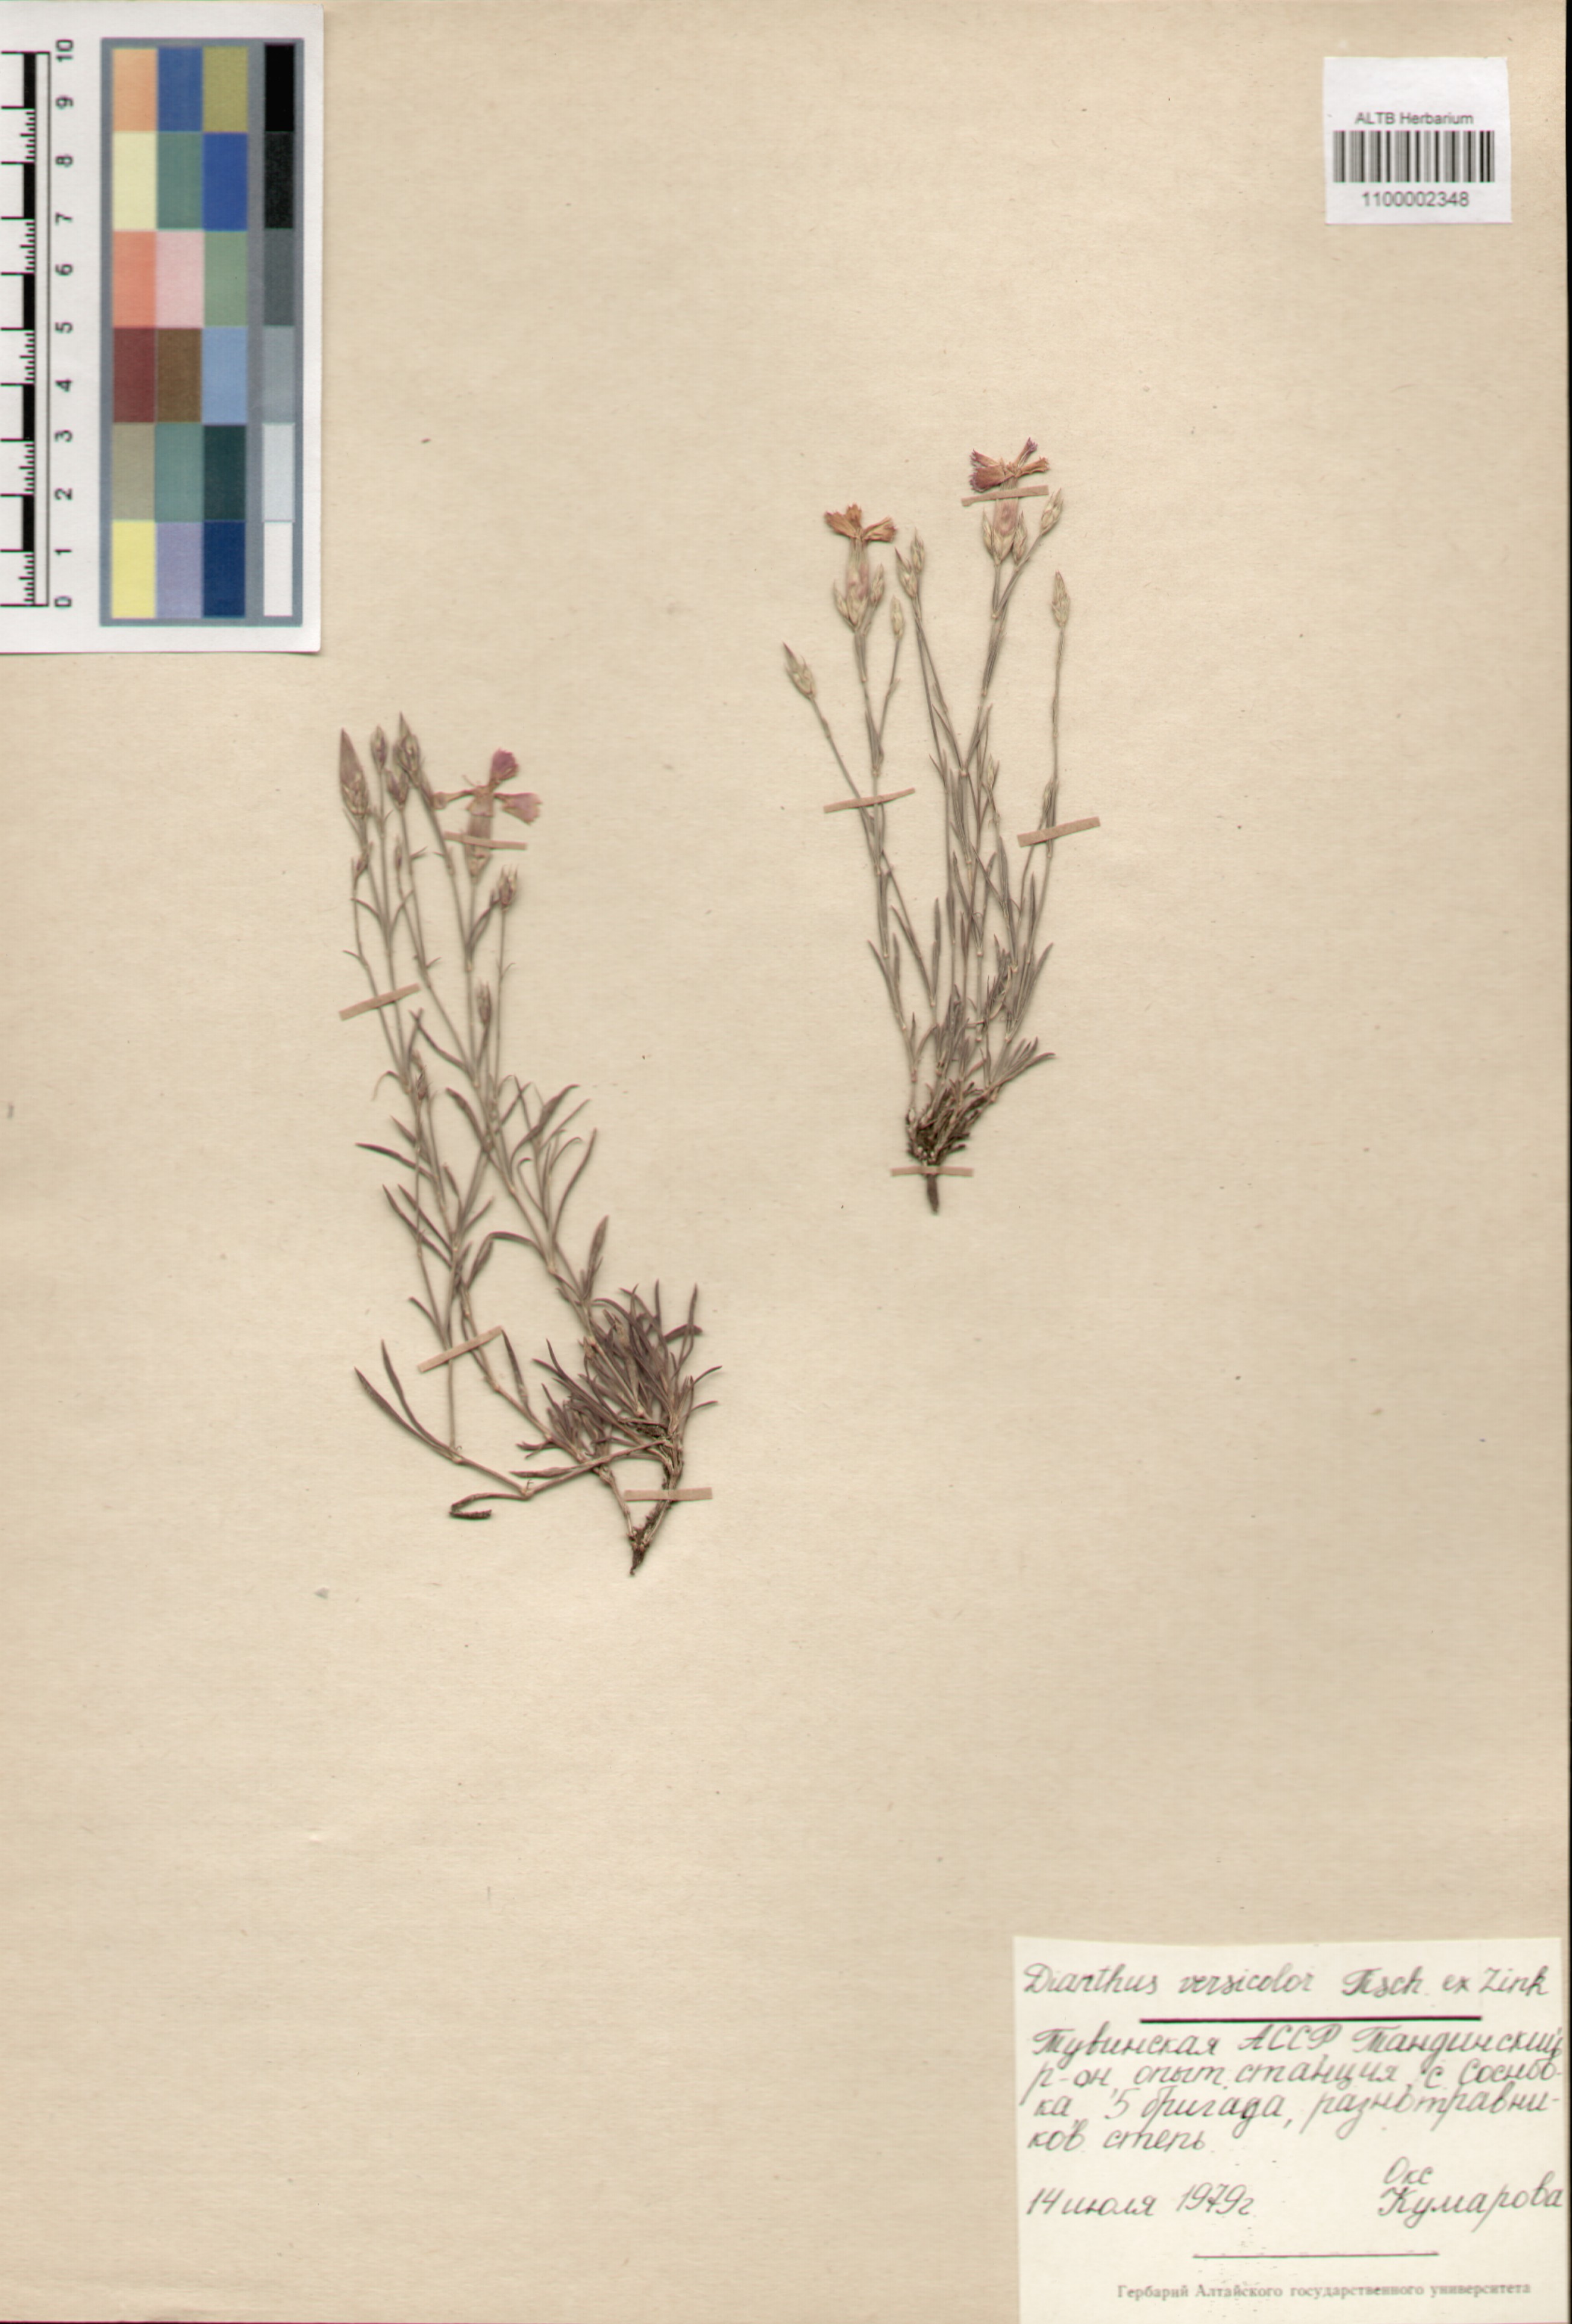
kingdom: Plantae
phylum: Tracheophyta
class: Magnoliopsida
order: Caryophyllales
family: Caryophyllaceae
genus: Dianthus
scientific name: Dianthus chinensis
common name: Rainbow pink
